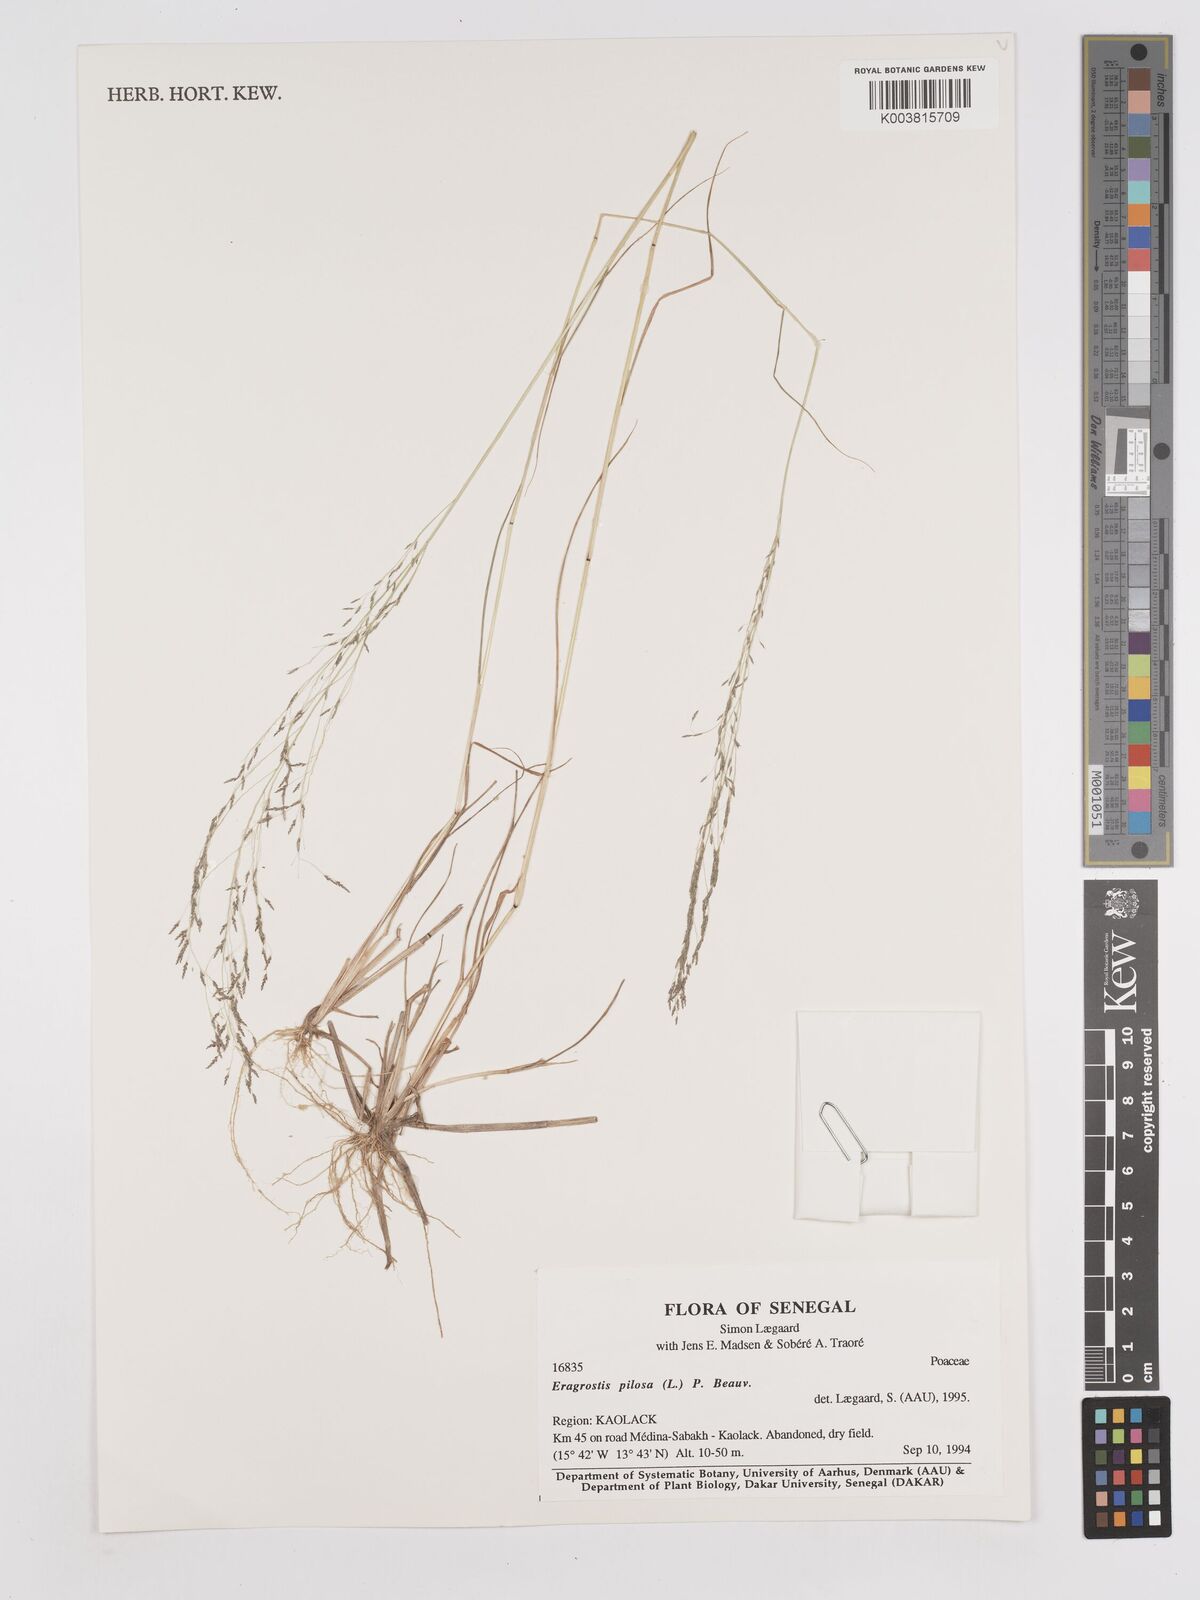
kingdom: Plantae
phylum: Tracheophyta
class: Liliopsida
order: Poales
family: Poaceae
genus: Eragrostis
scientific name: Eragrostis pilosa
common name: Indian lovegrass
